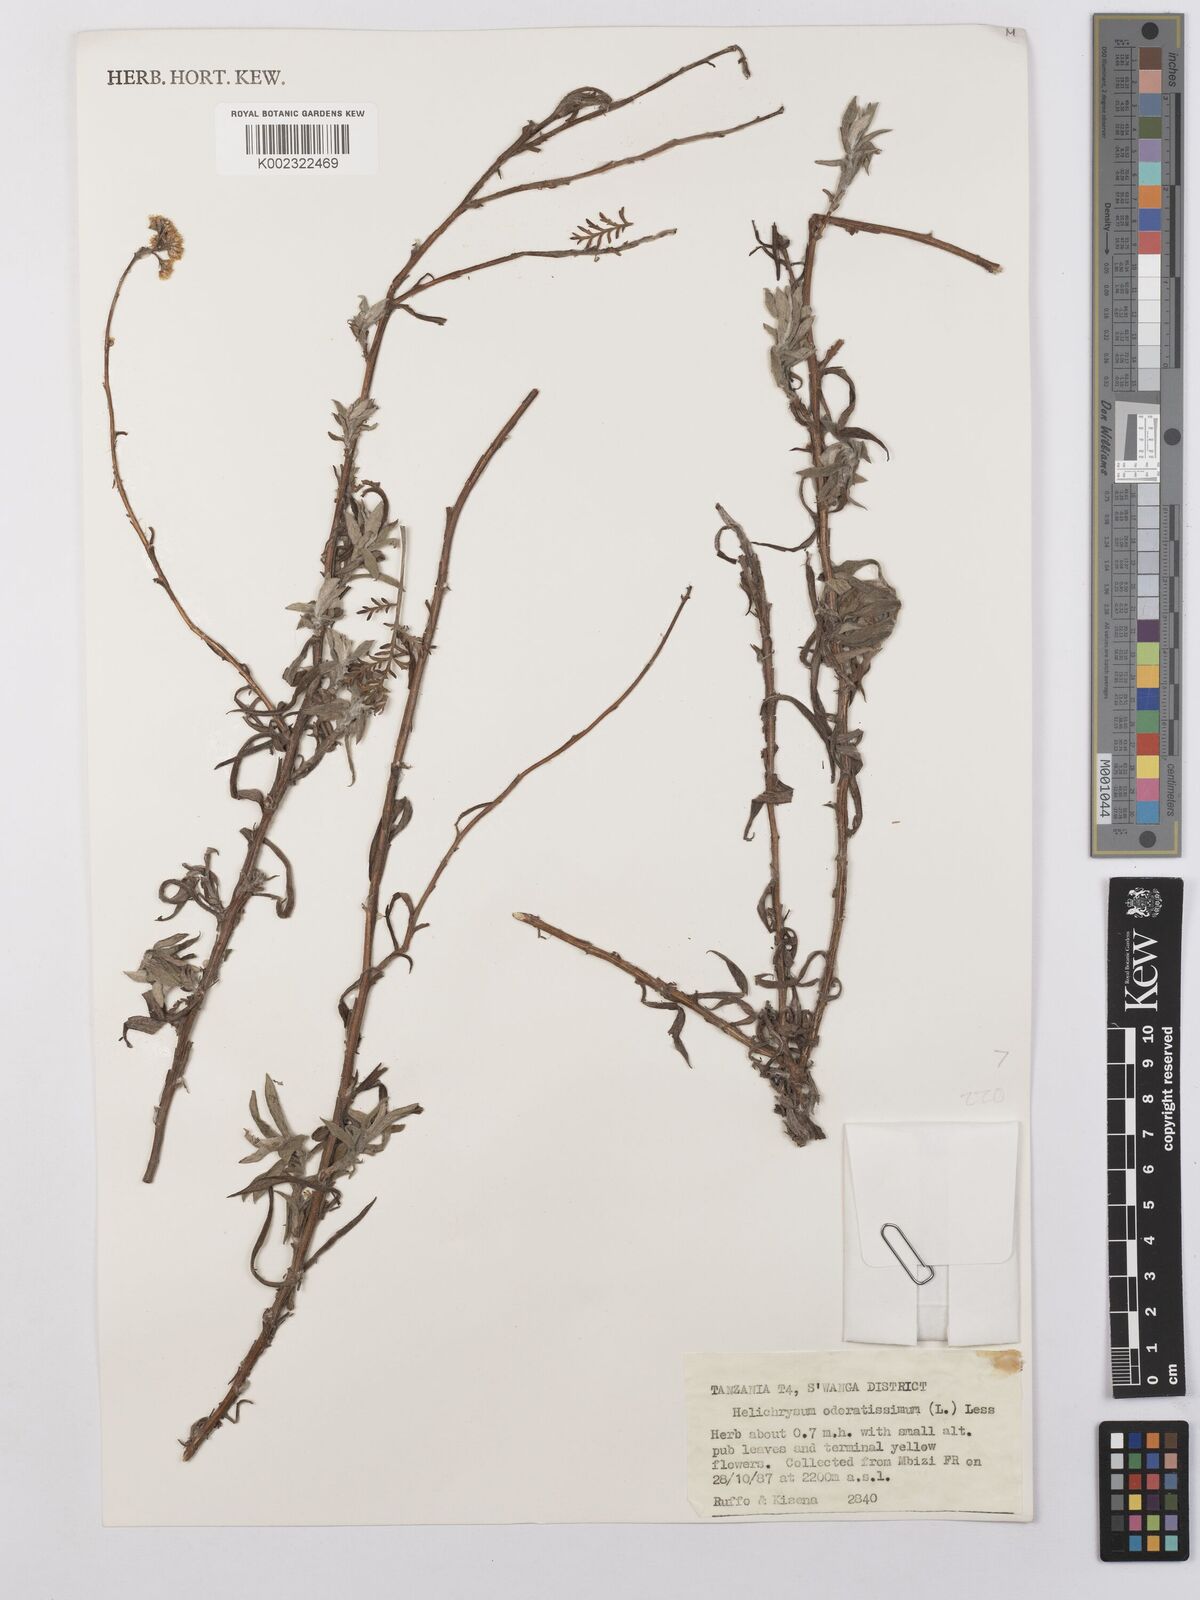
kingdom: Plantae
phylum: Tracheophyta
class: Magnoliopsida
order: Asterales
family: Asteraceae
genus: Helichrysum
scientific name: Helichrysum stenopterum
